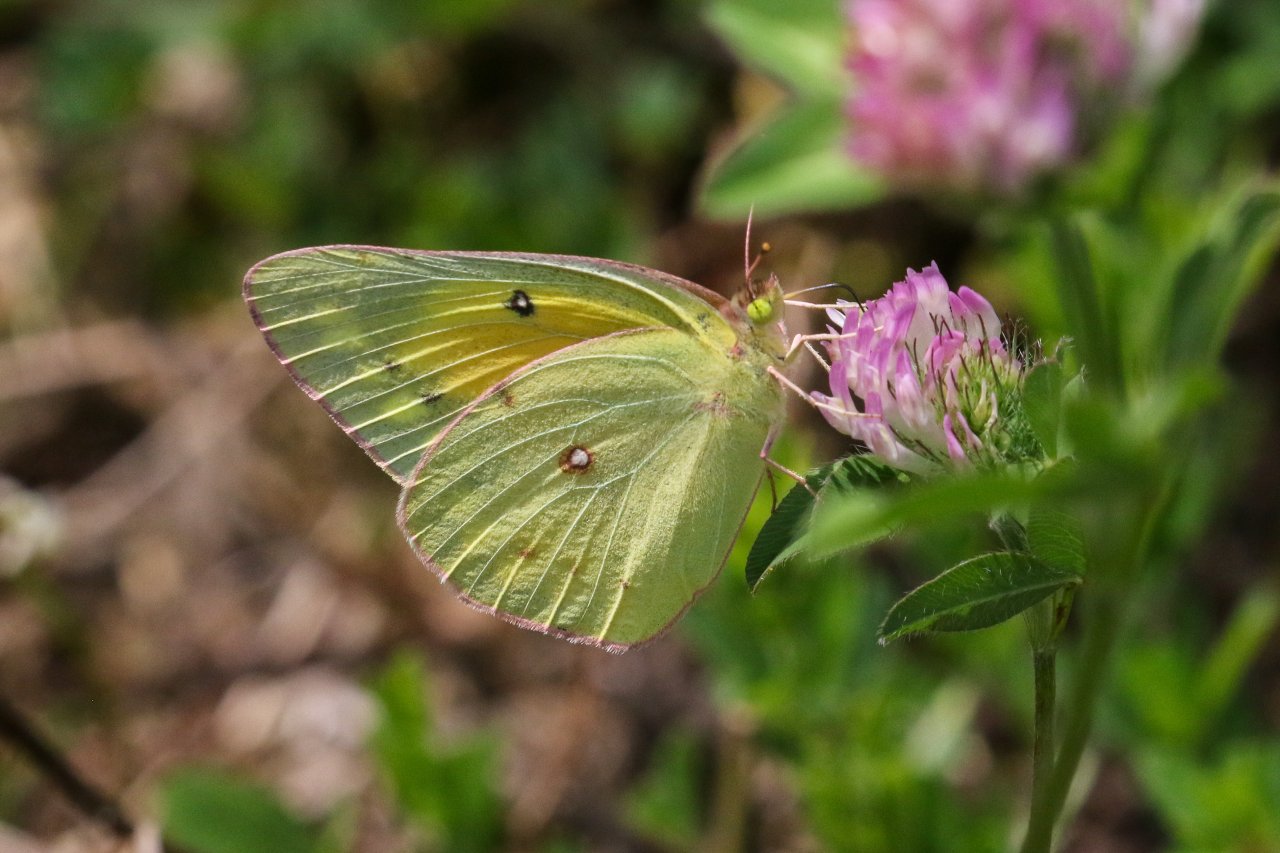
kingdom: Animalia
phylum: Arthropoda
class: Insecta
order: Lepidoptera
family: Pieridae
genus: Colias
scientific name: Colias eurytheme
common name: Orange Sulphur
